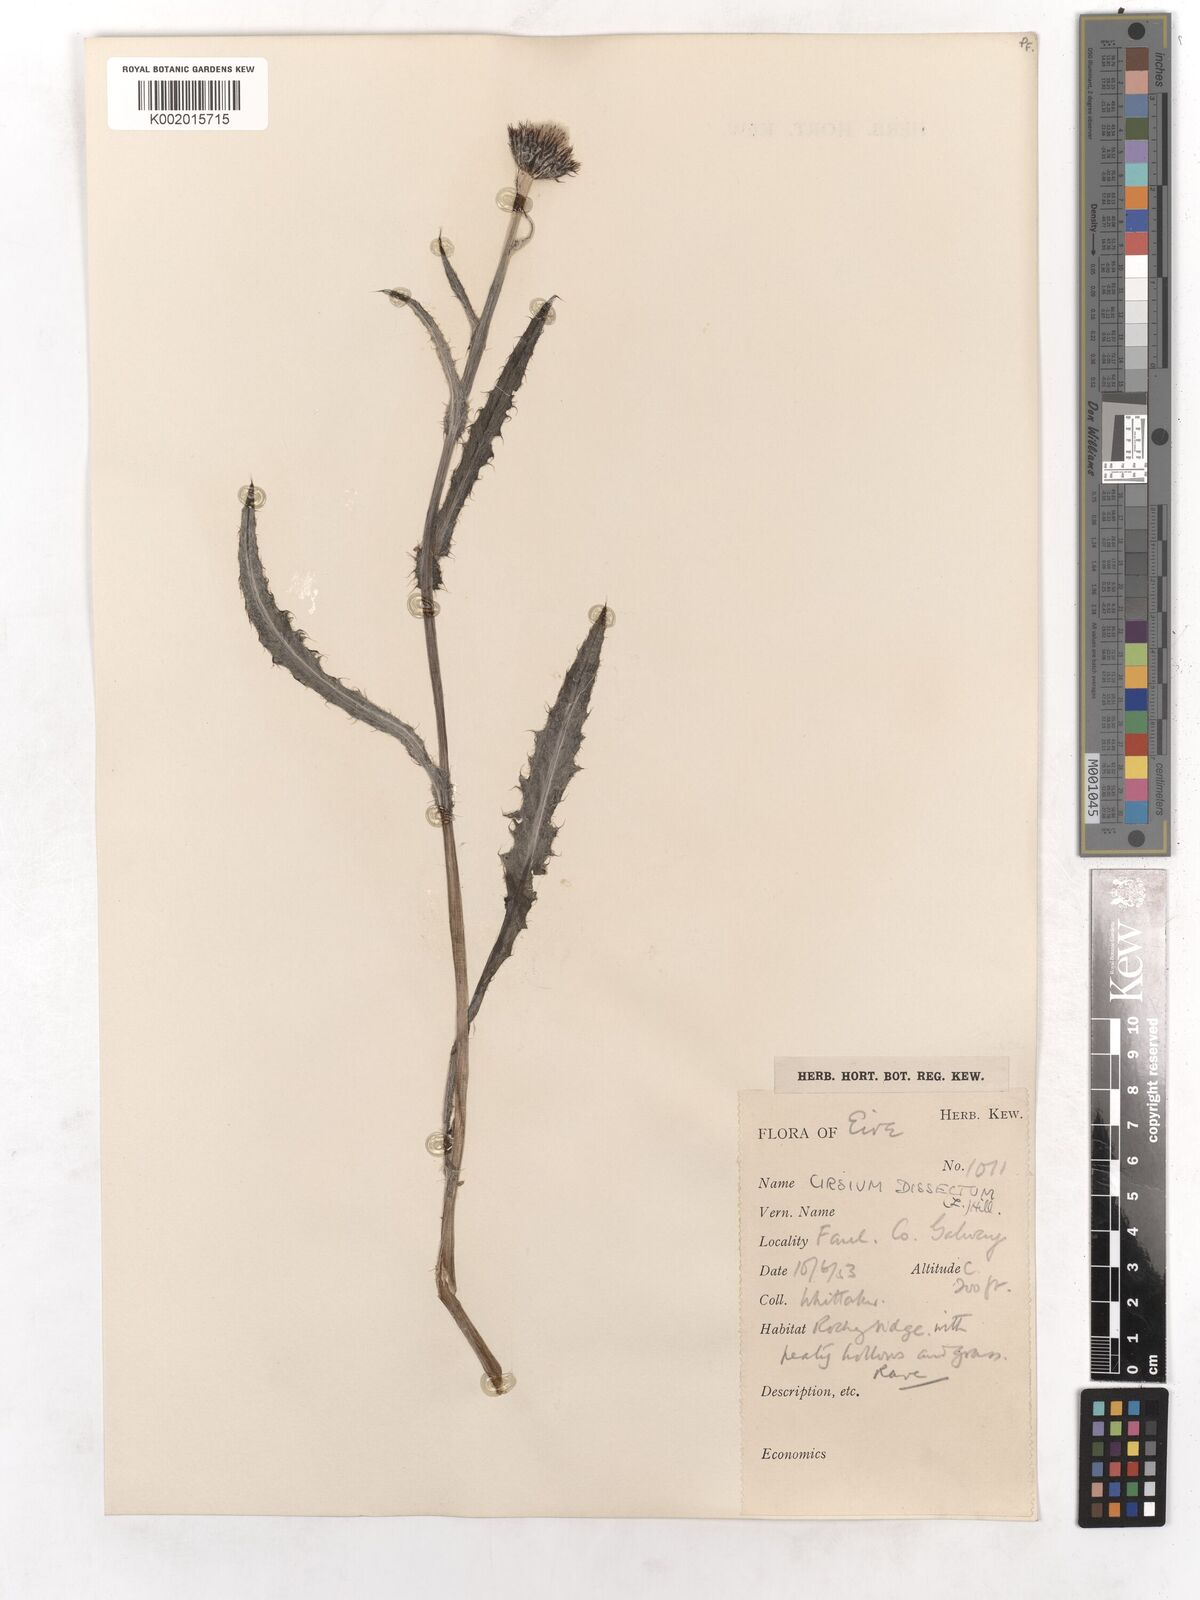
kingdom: Plantae
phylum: Tracheophyta
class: Magnoliopsida
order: Asterales
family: Asteraceae
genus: Cirsium
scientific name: Cirsium dissectum
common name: Meadow thistle
